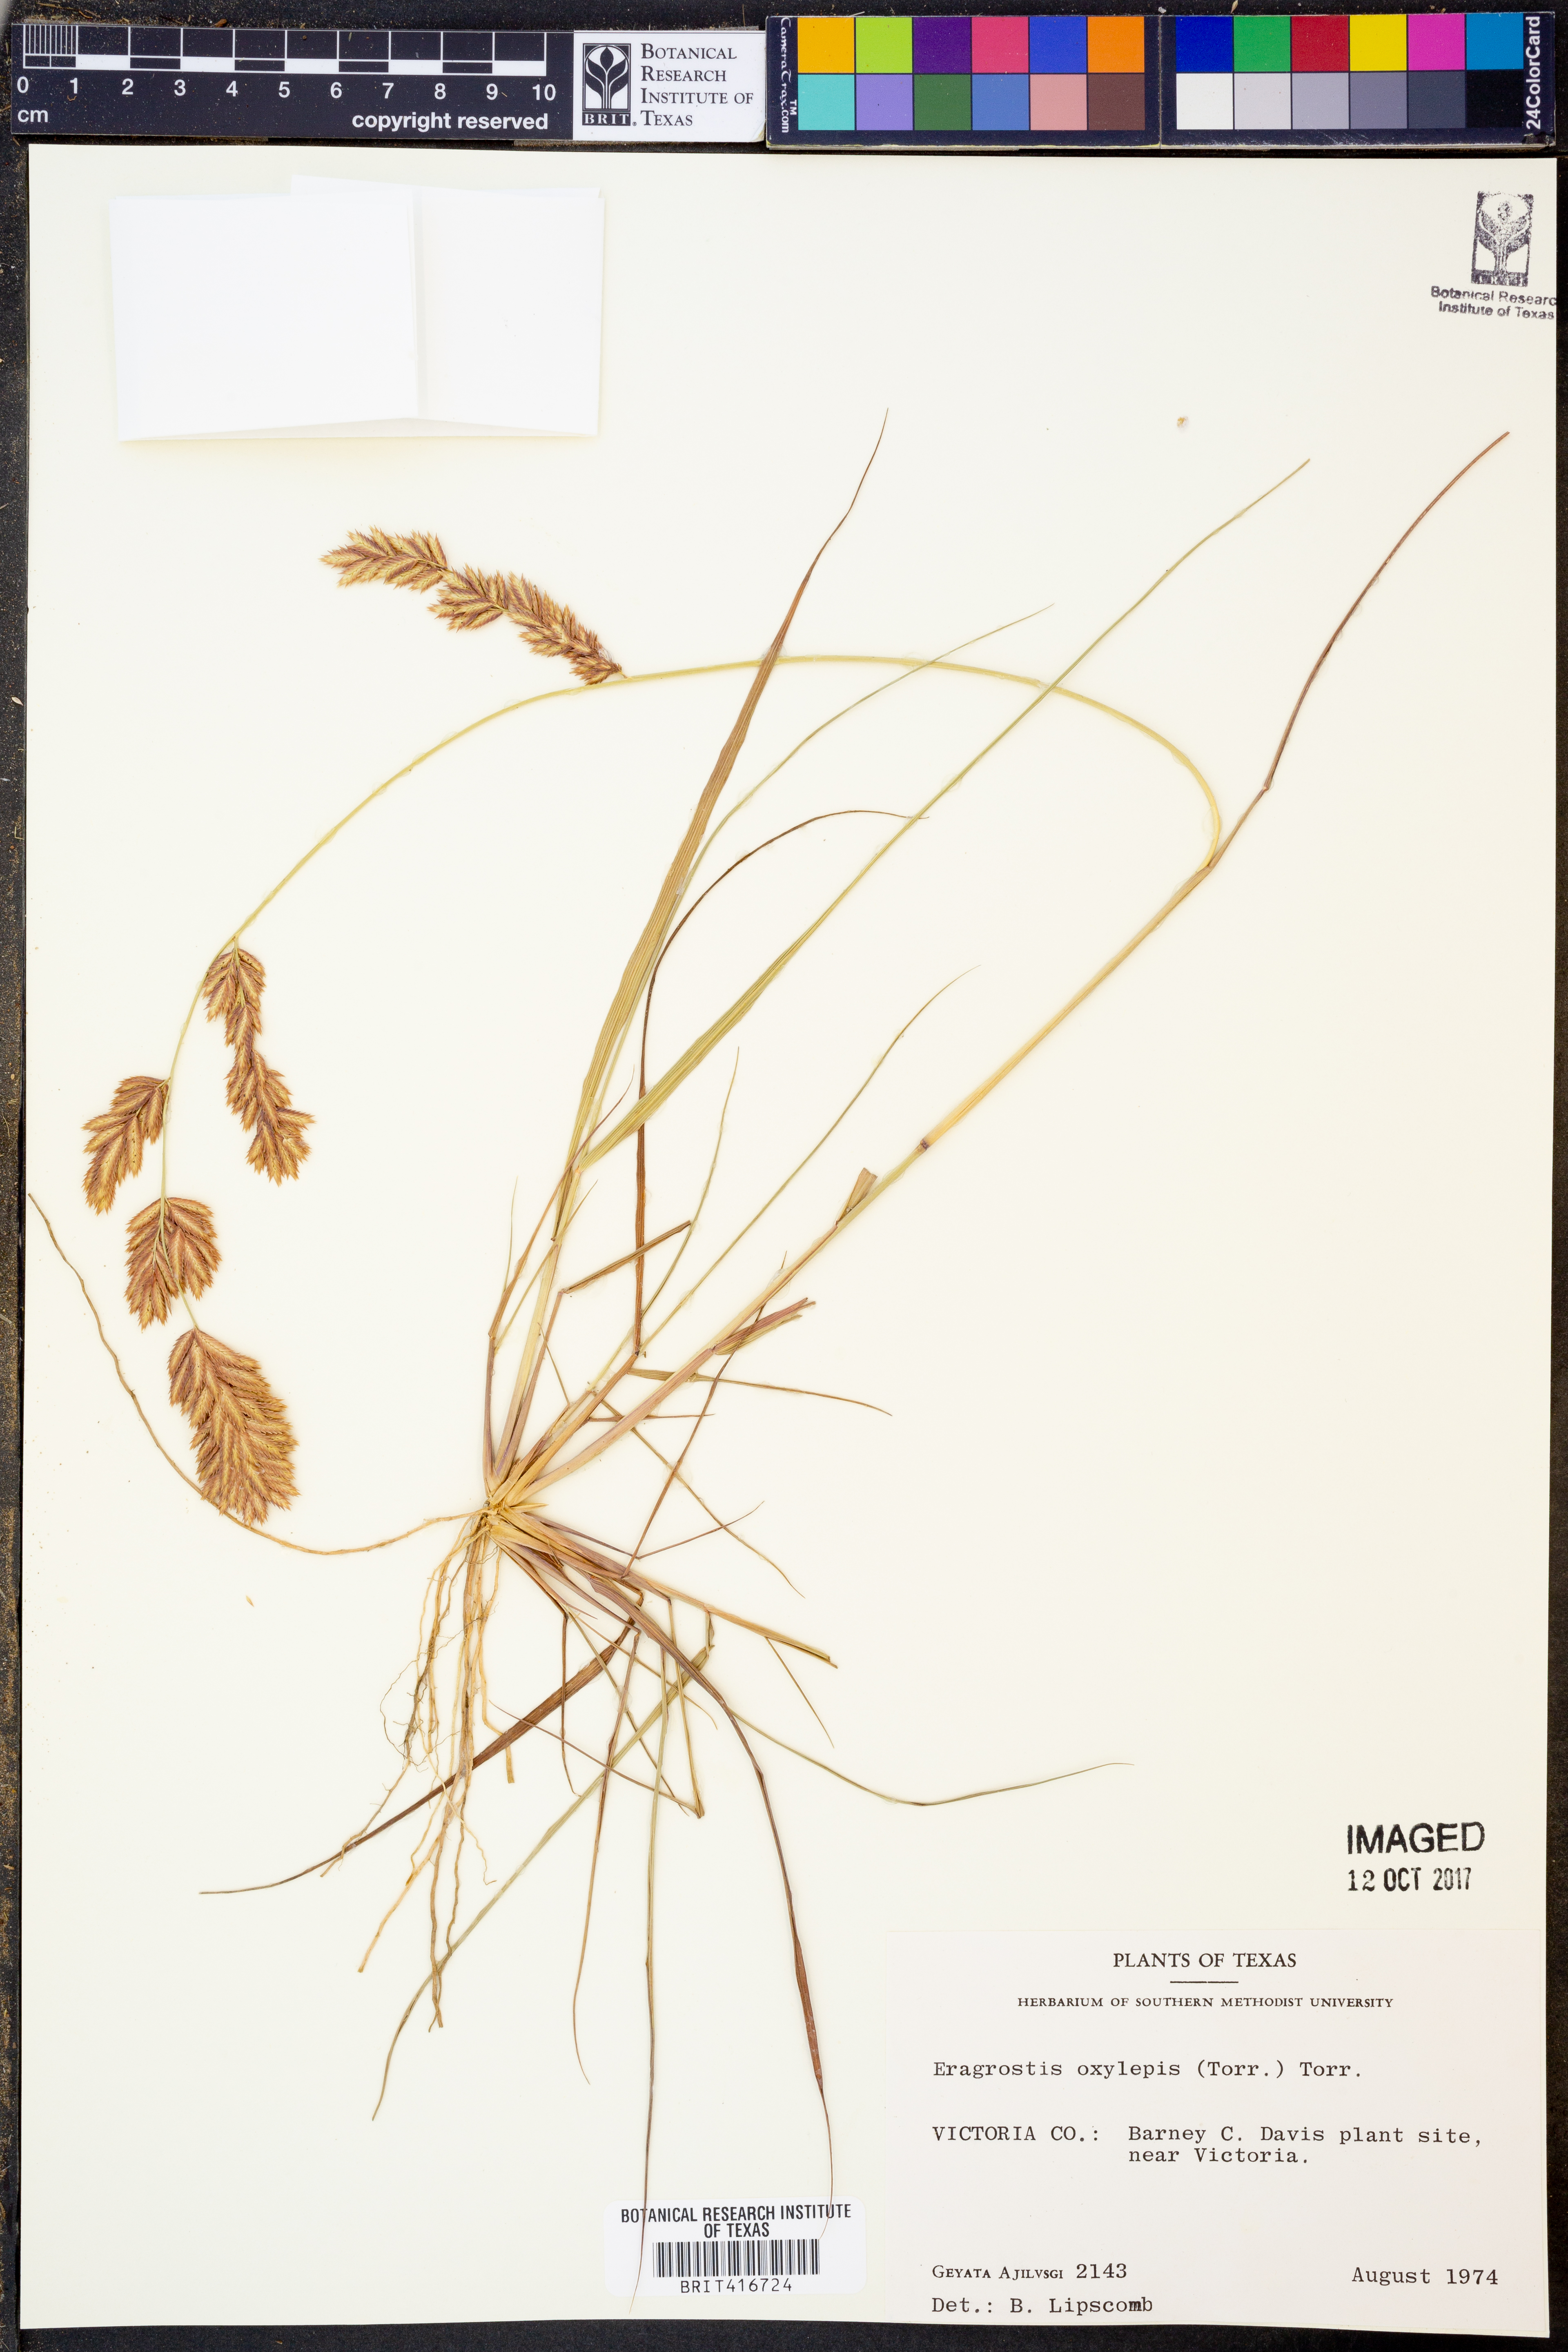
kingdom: Plantae
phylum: Tracheophyta
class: Liliopsida
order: Poales
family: Poaceae
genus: Eragrostis
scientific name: Eragrostis secundiflora
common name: Red love grass
